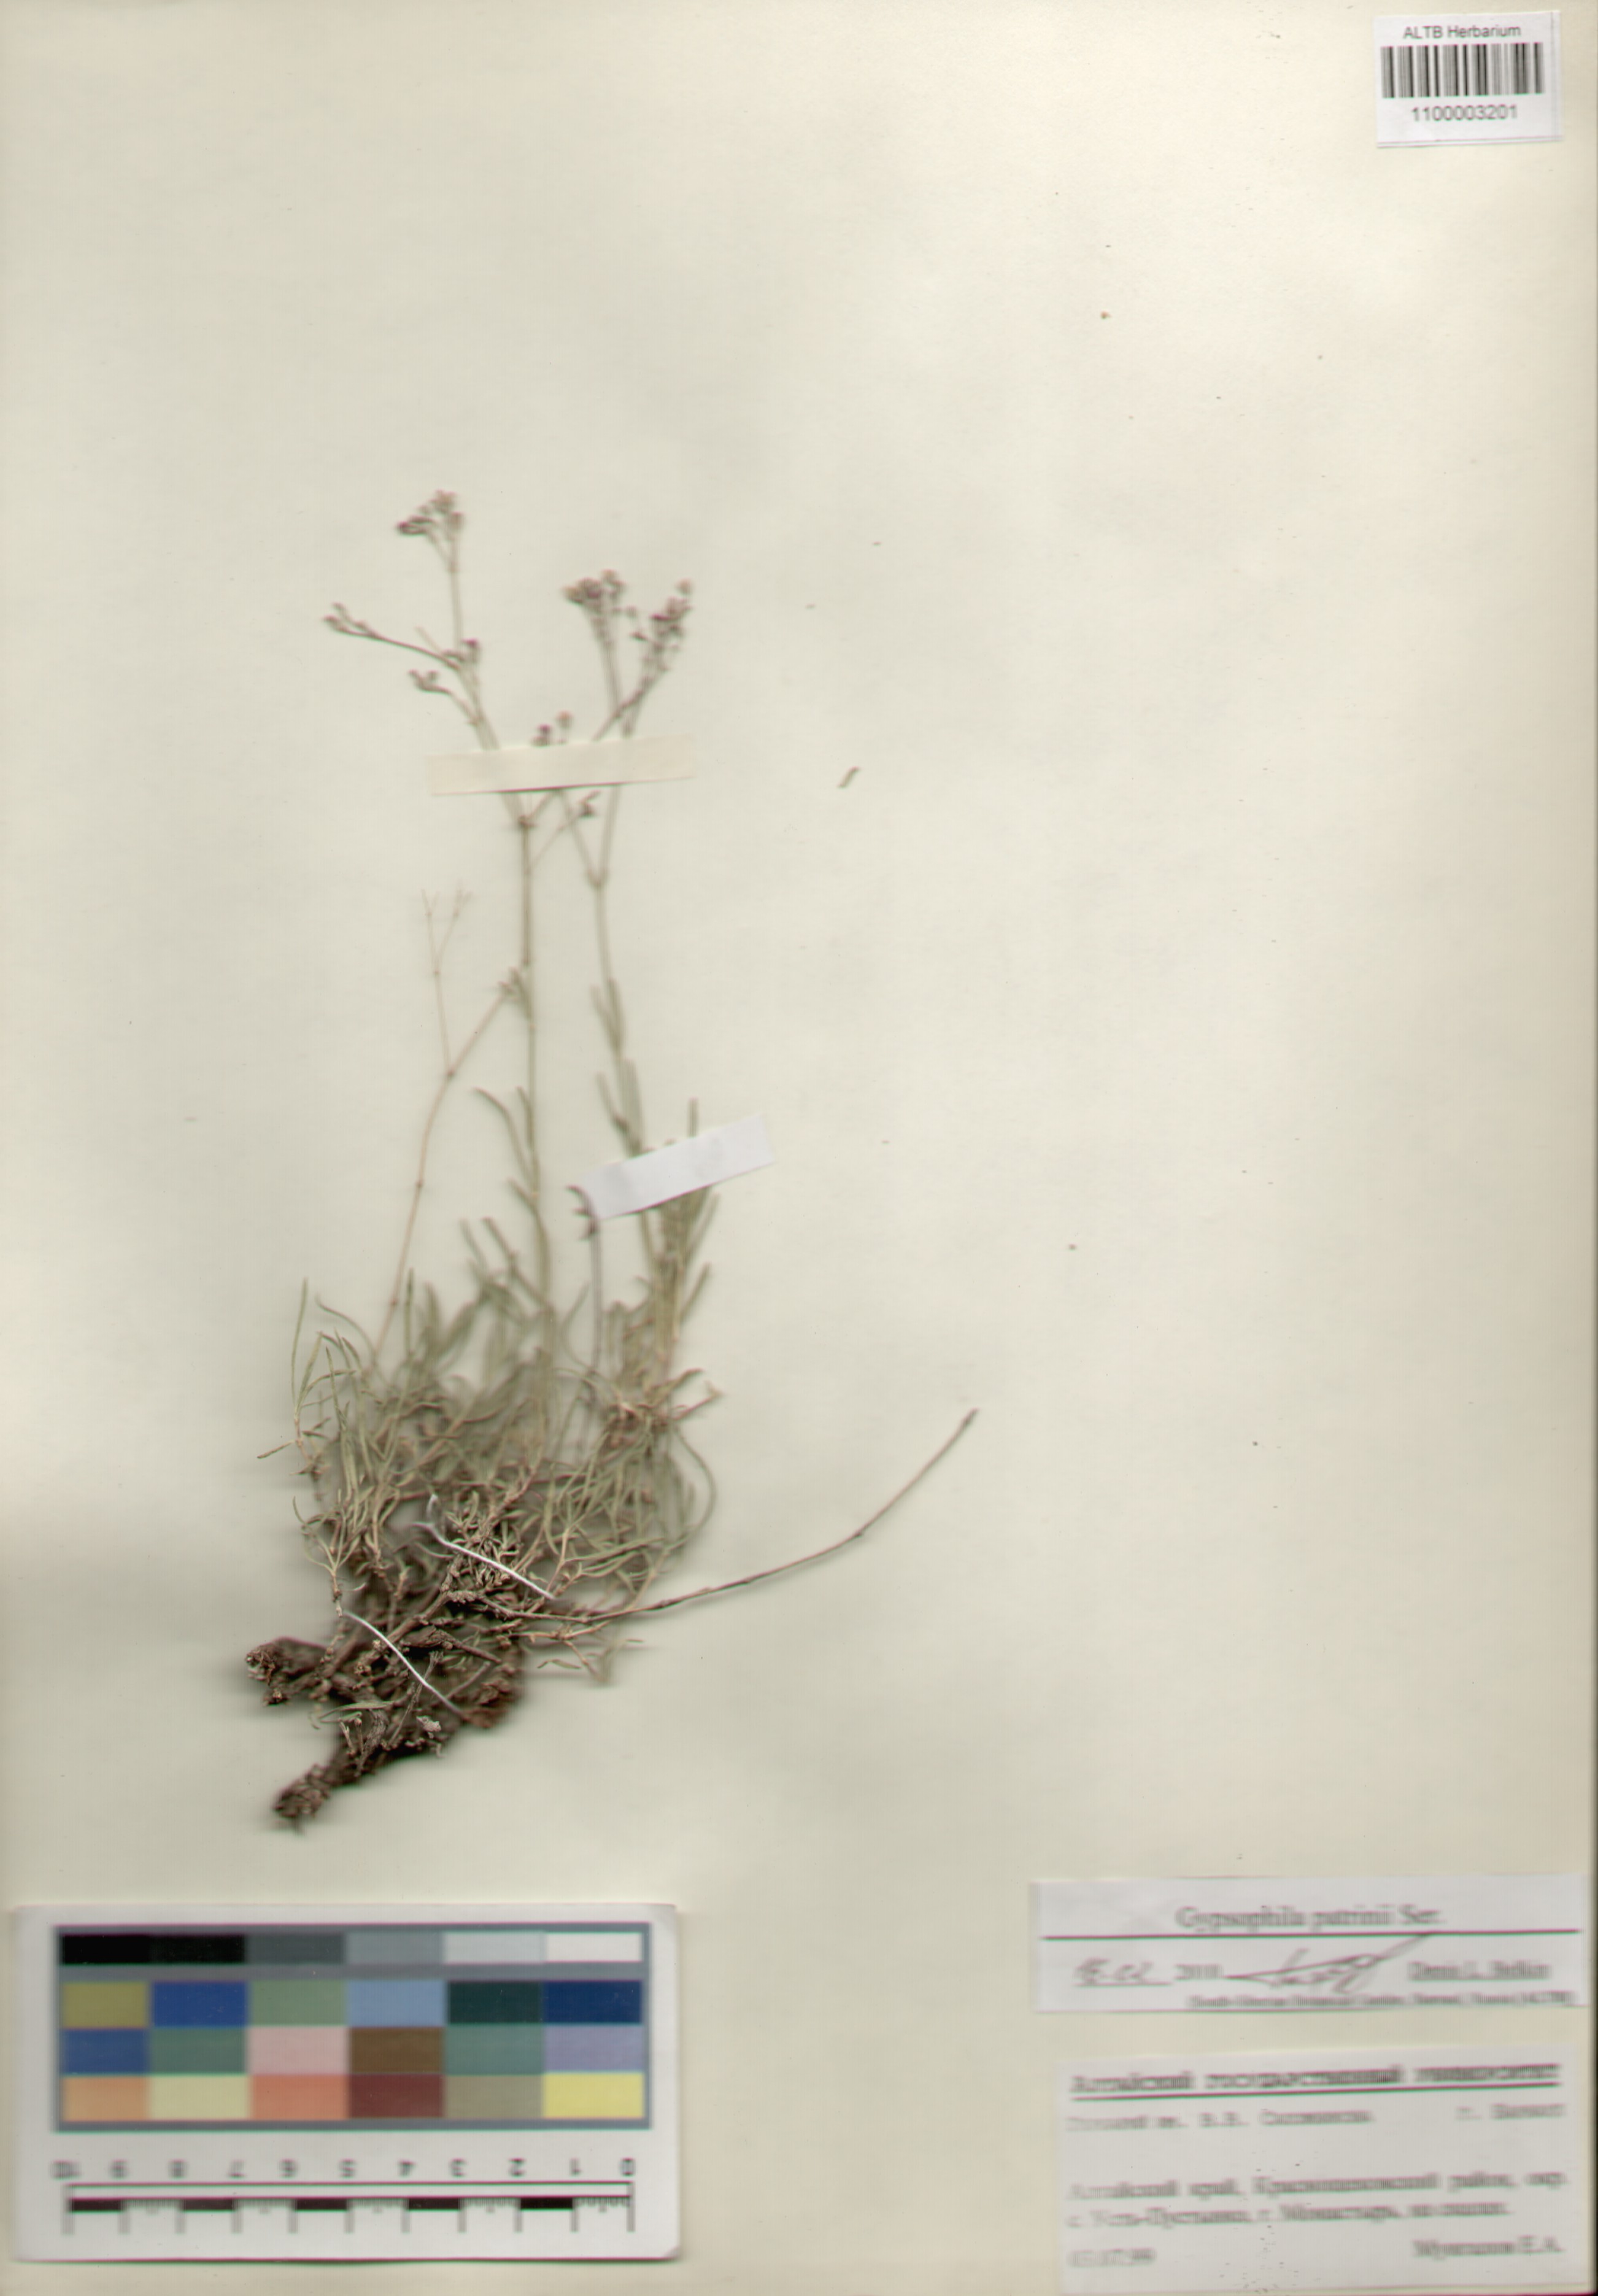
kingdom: Plantae
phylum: Tracheophyta
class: Magnoliopsida
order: Caryophyllales
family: Caryophyllaceae
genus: Gypsophila
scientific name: Gypsophila patrinii
